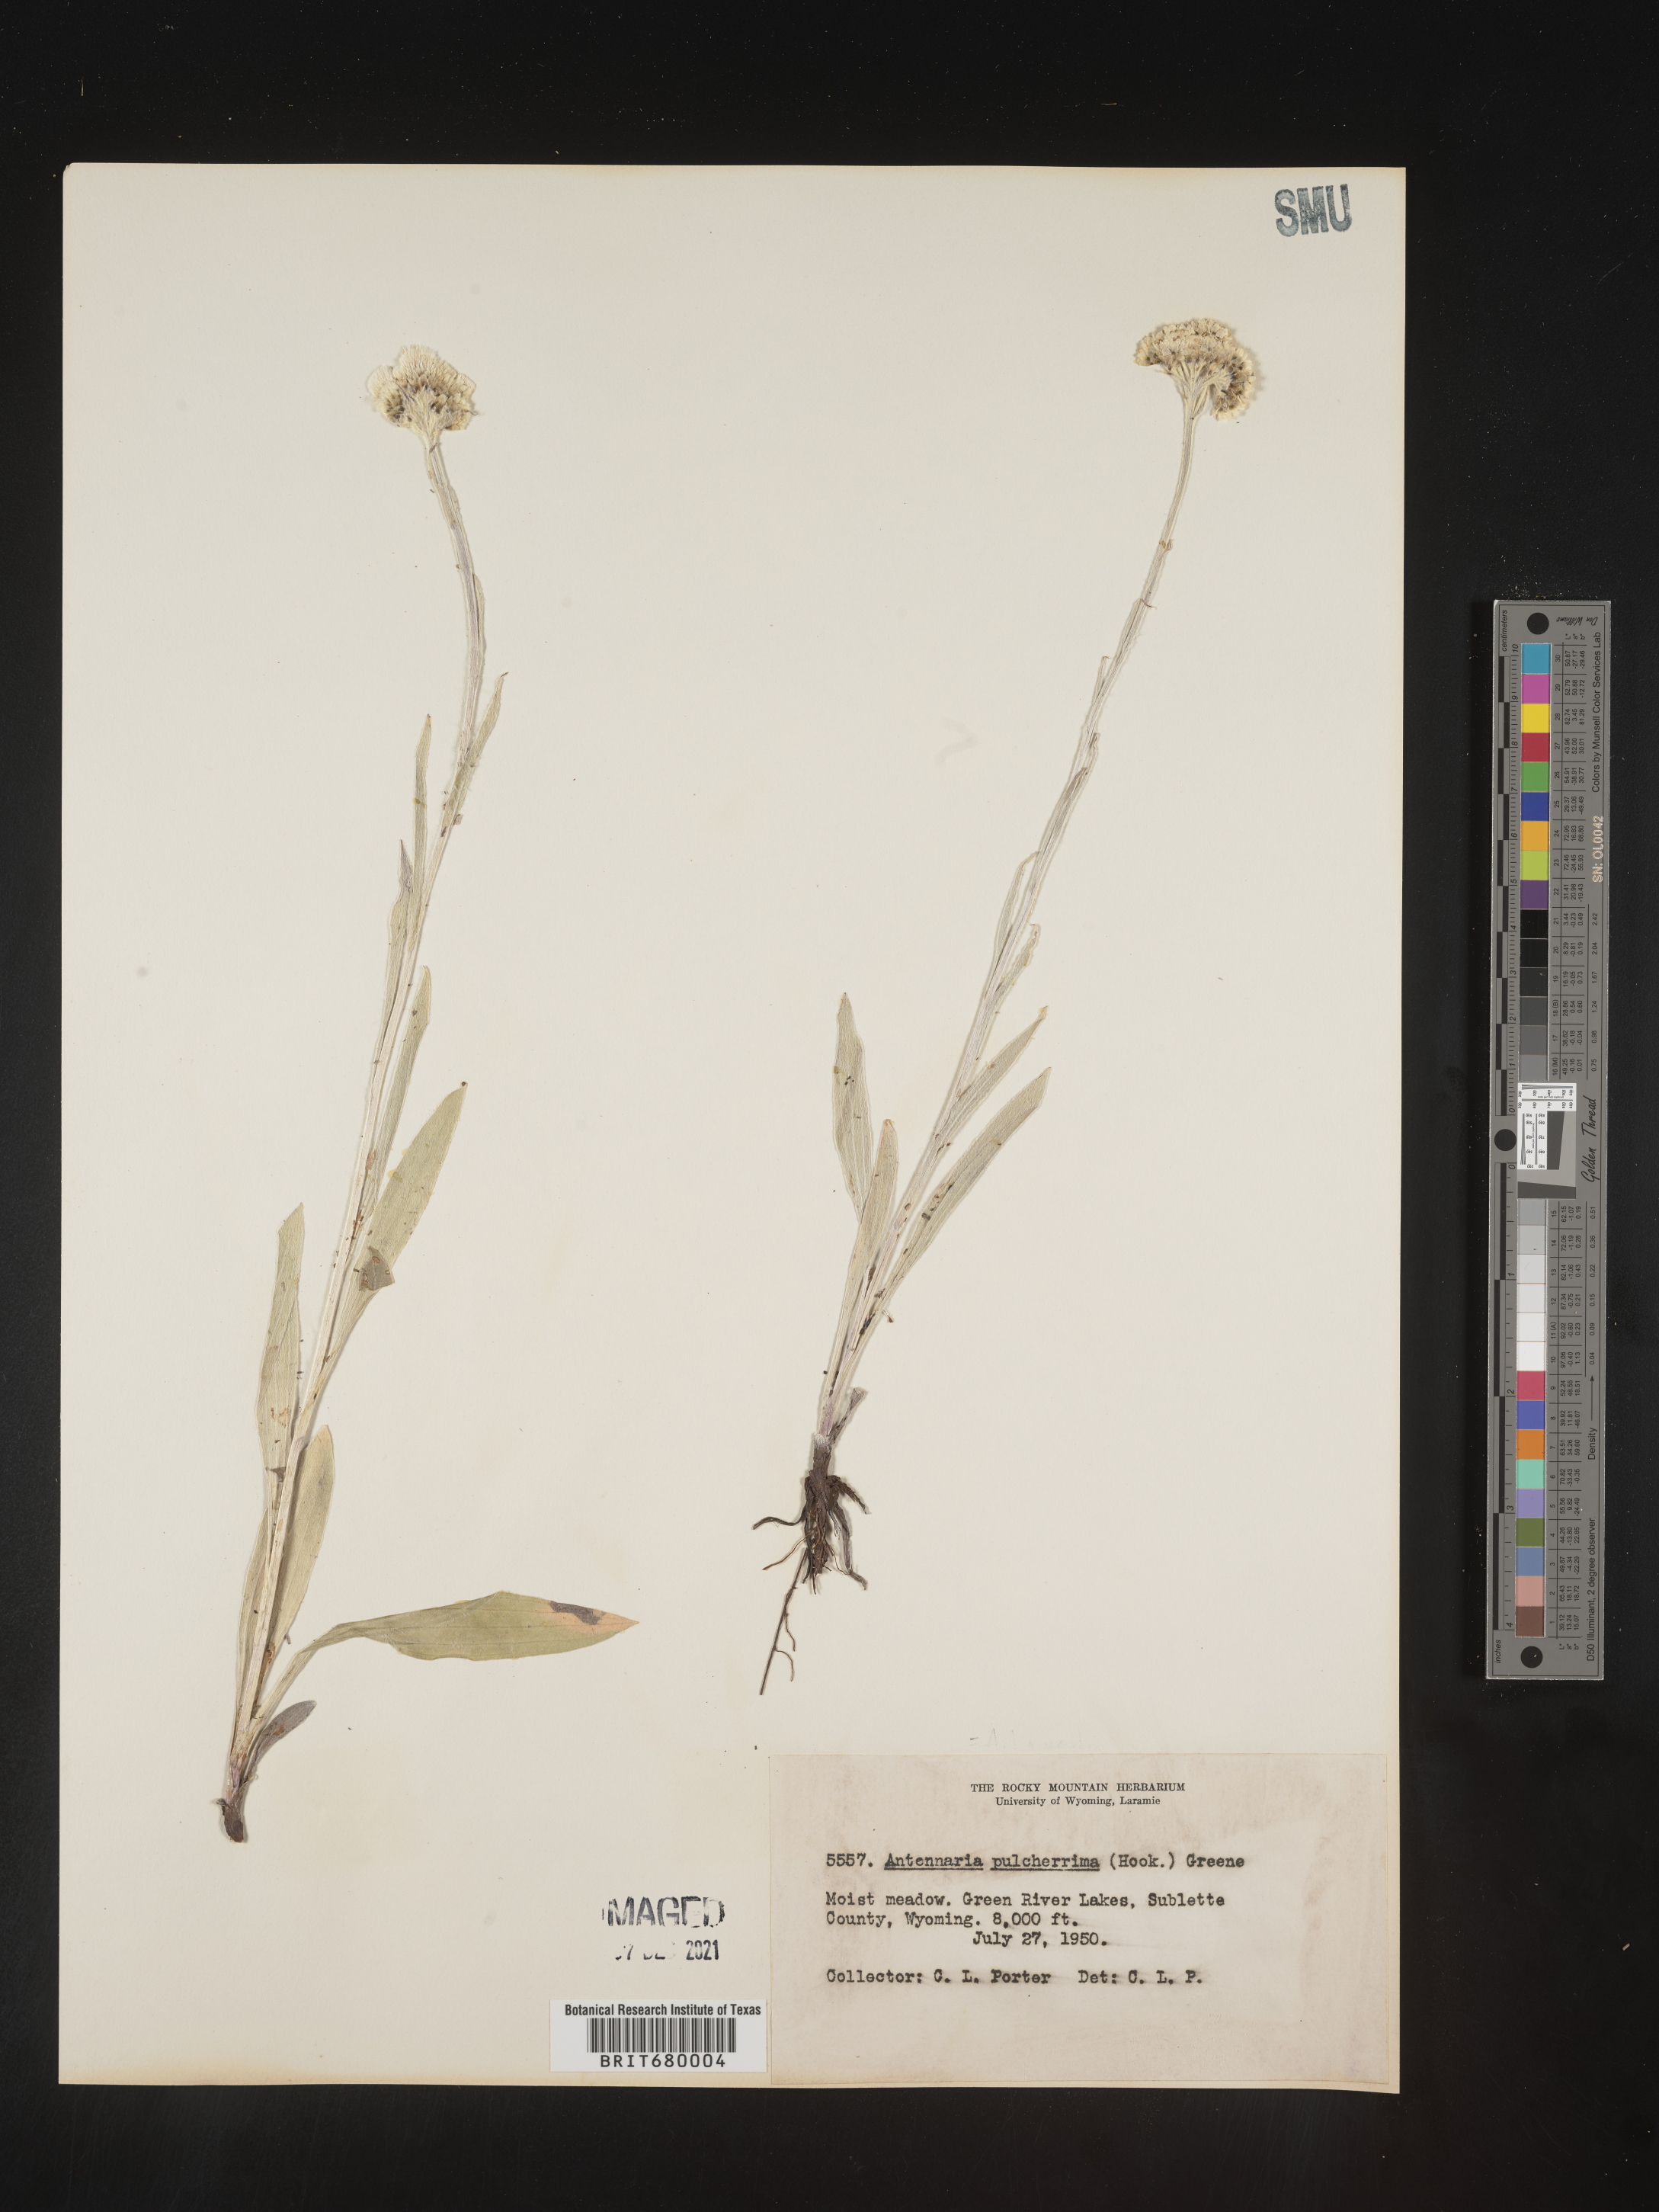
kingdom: Plantae
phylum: Tracheophyta
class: Magnoliopsida
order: Asterales
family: Asteraceae
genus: Antennaria
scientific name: Antennaria pulcherrima
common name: Handsome pussytoes
